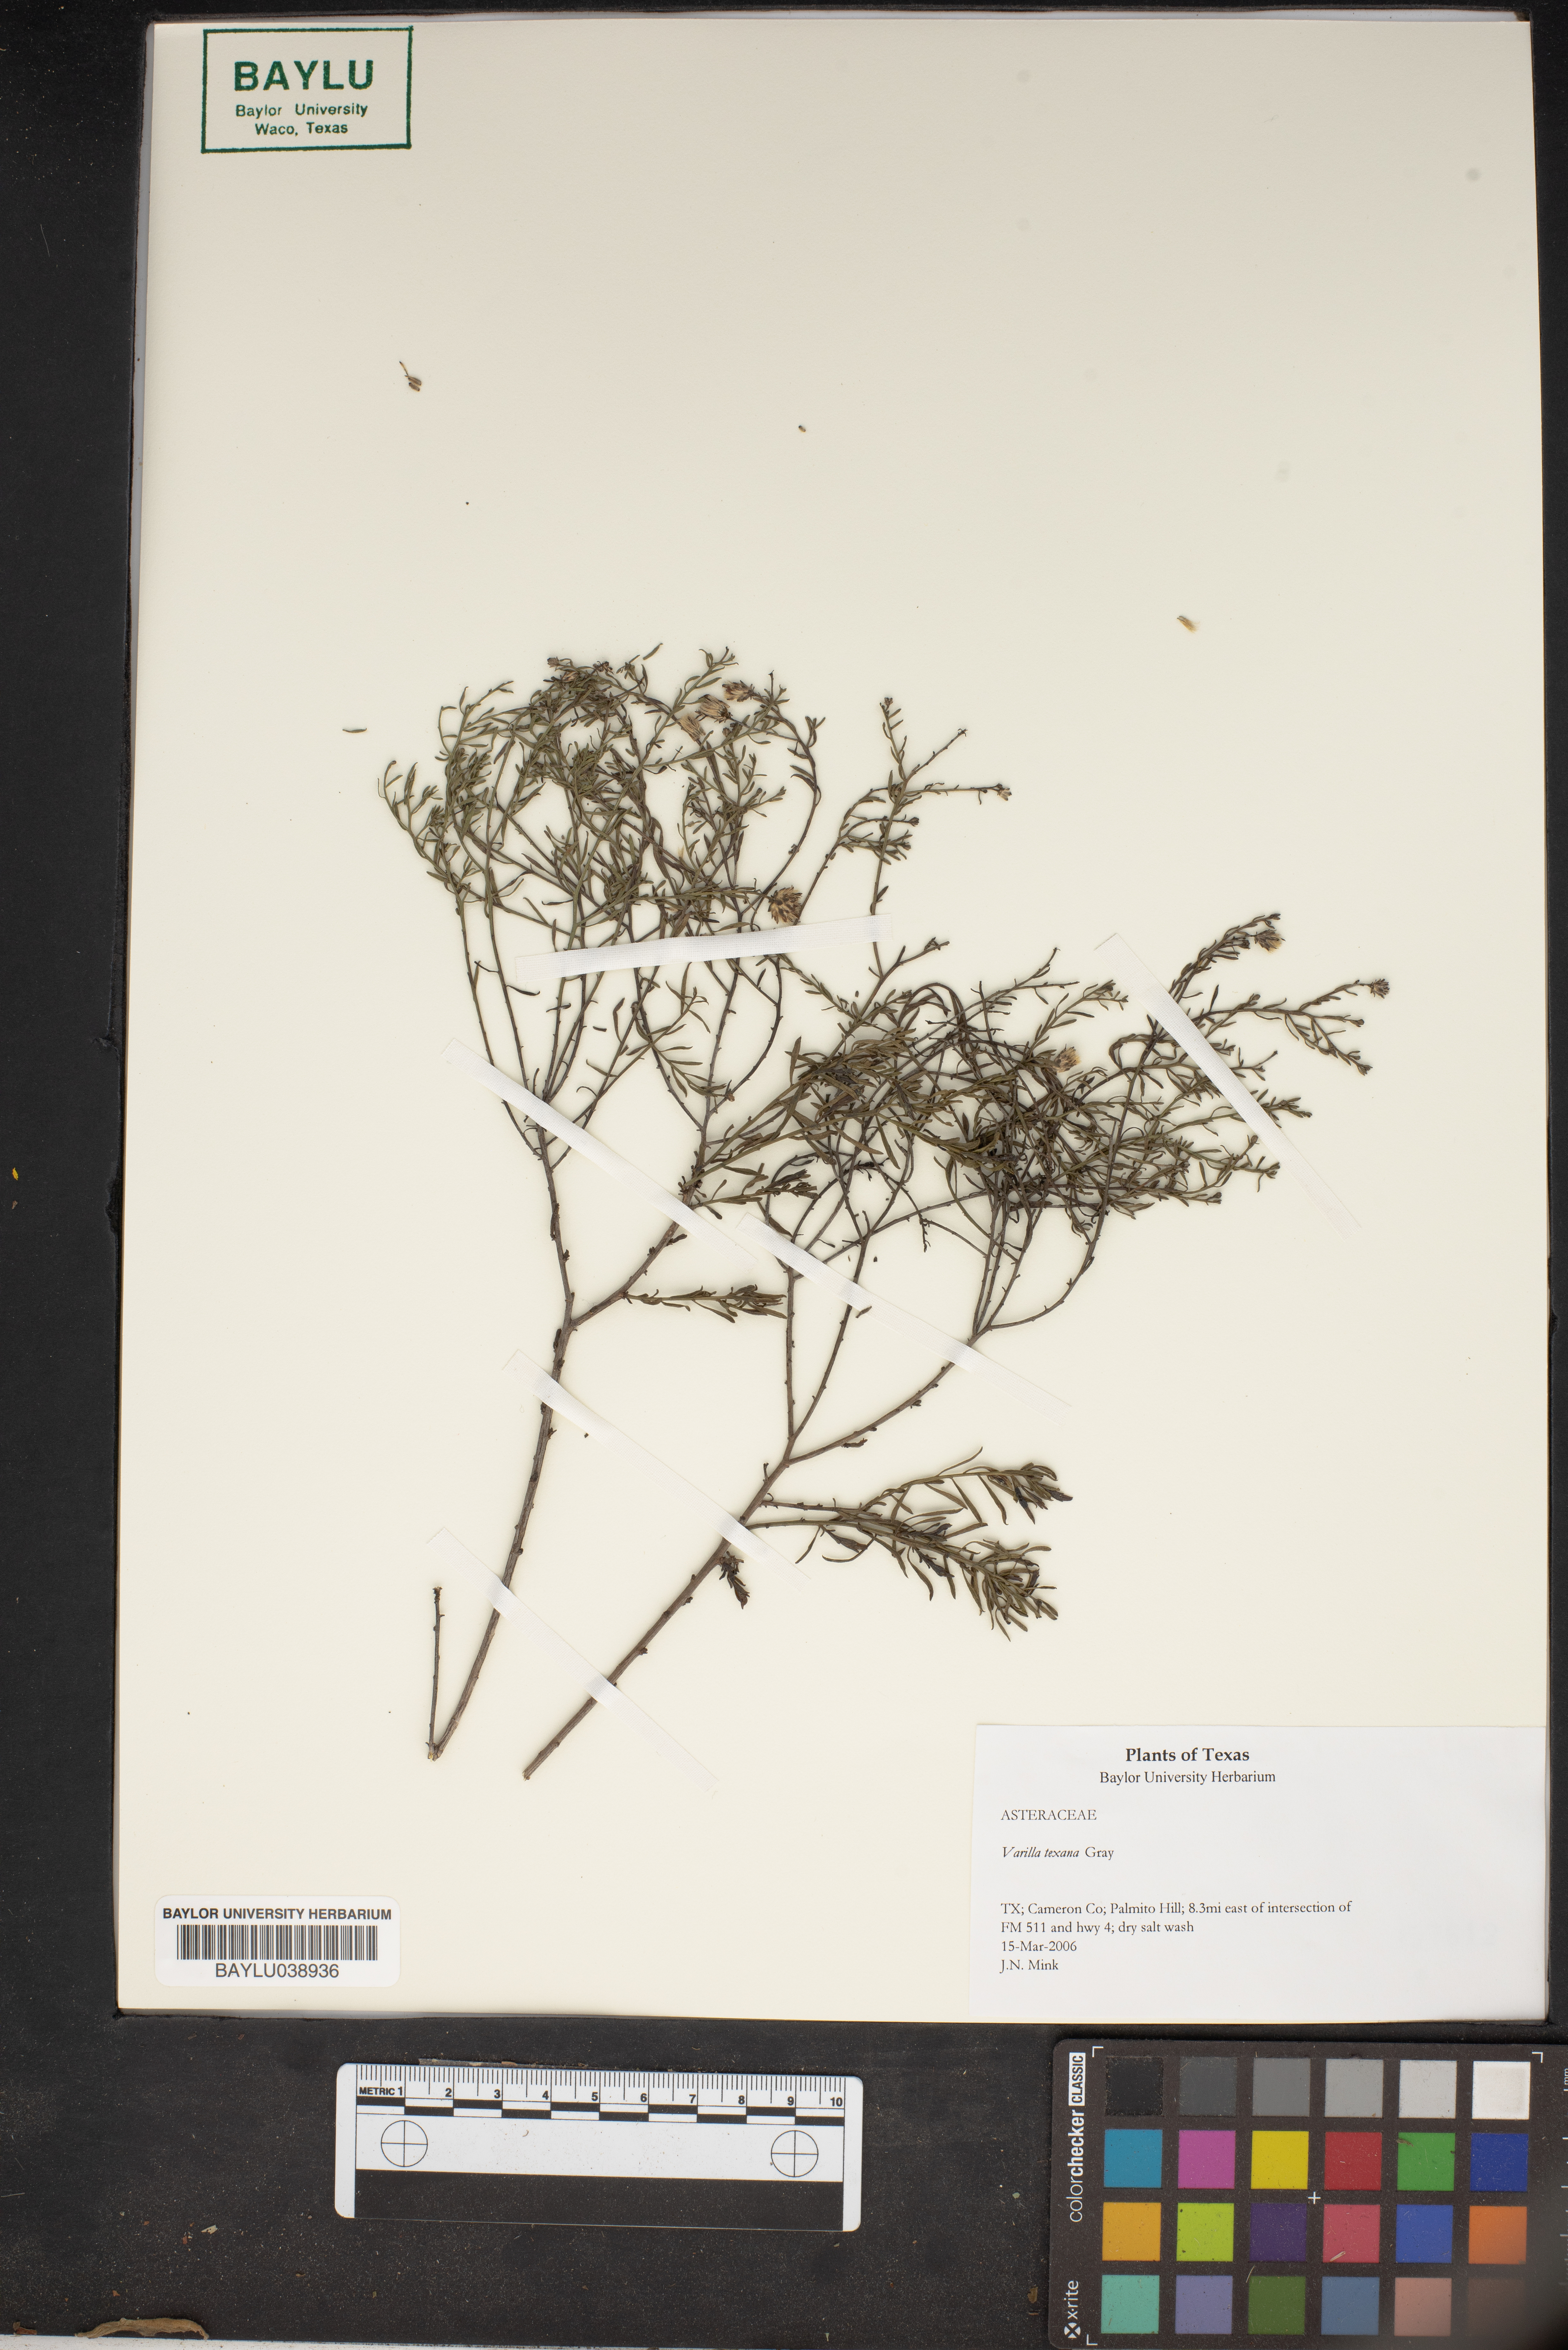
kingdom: Plantae
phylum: Tracheophyta
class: Magnoliopsida
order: Asterales
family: Asteraceae
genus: Varilla
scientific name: Varilla texana
